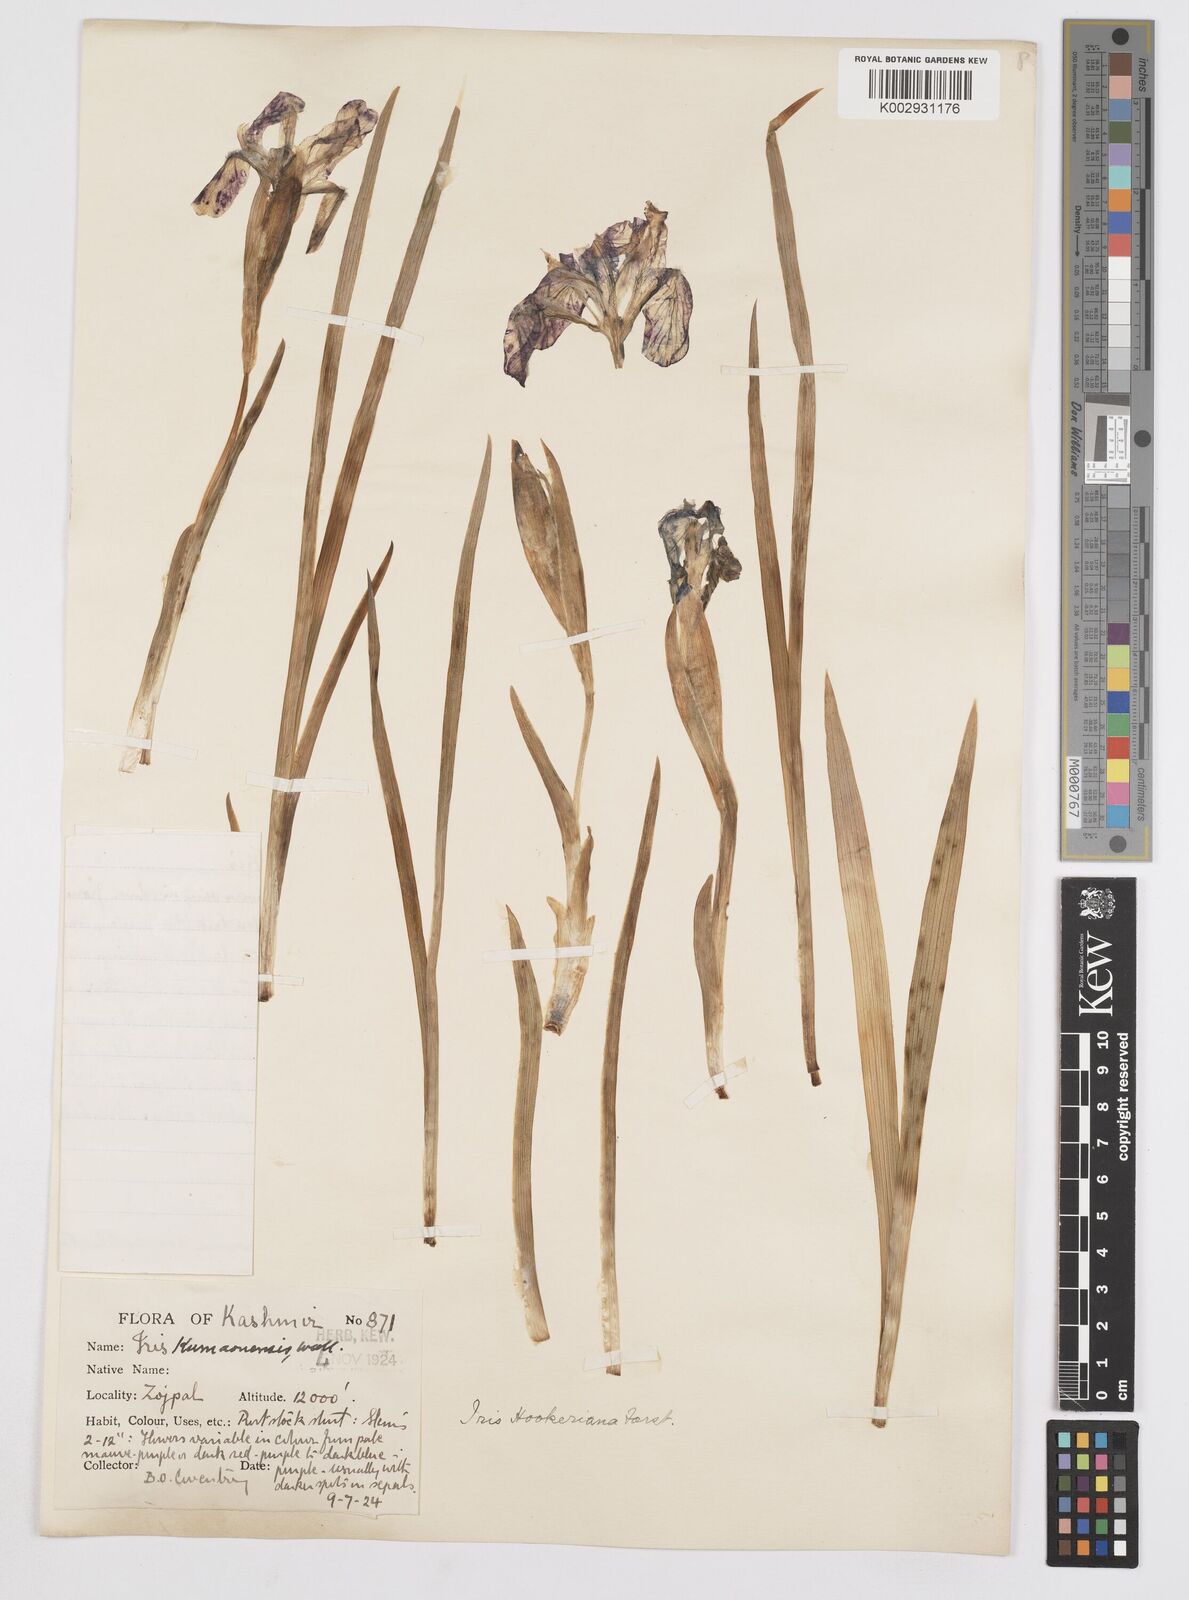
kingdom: Plantae
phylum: Tracheophyta
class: Liliopsida
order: Asparagales
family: Iridaceae
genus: Iris
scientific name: Iris kemaonensis
